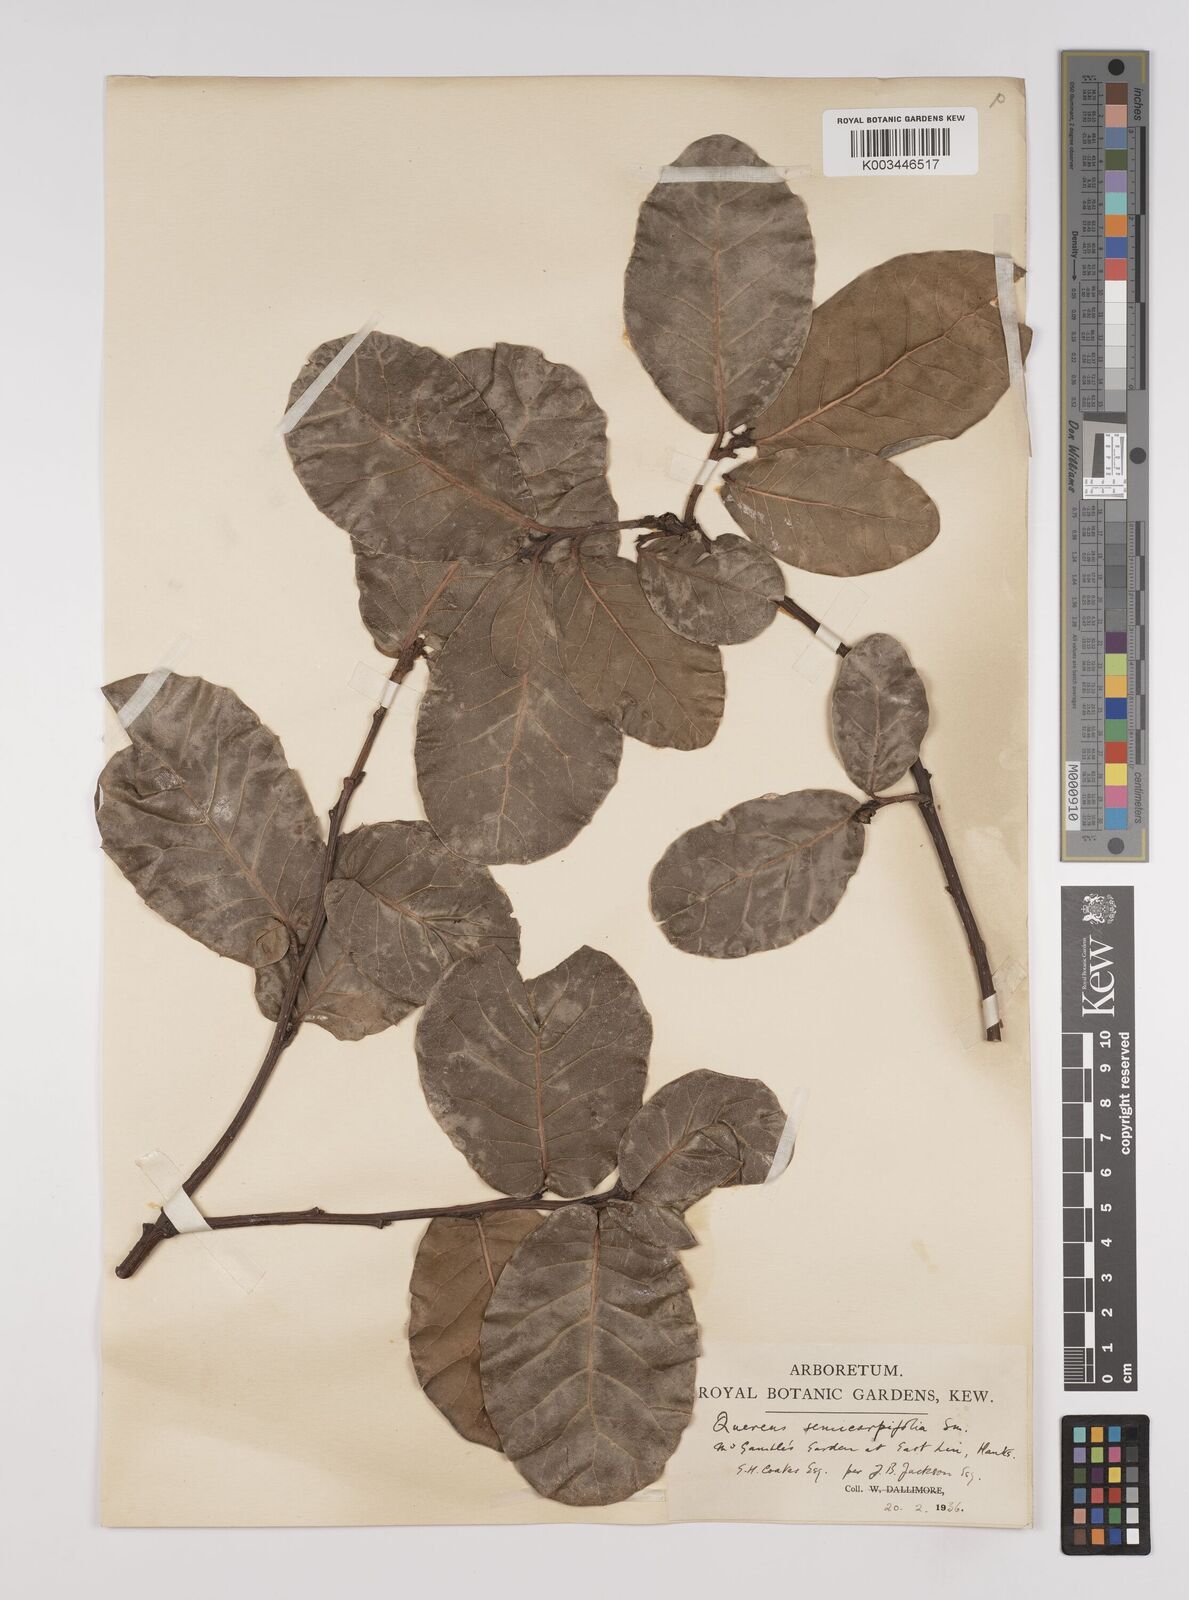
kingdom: Plantae
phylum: Tracheophyta
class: Magnoliopsida
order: Fagales
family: Fagaceae
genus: Quercus
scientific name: Quercus
